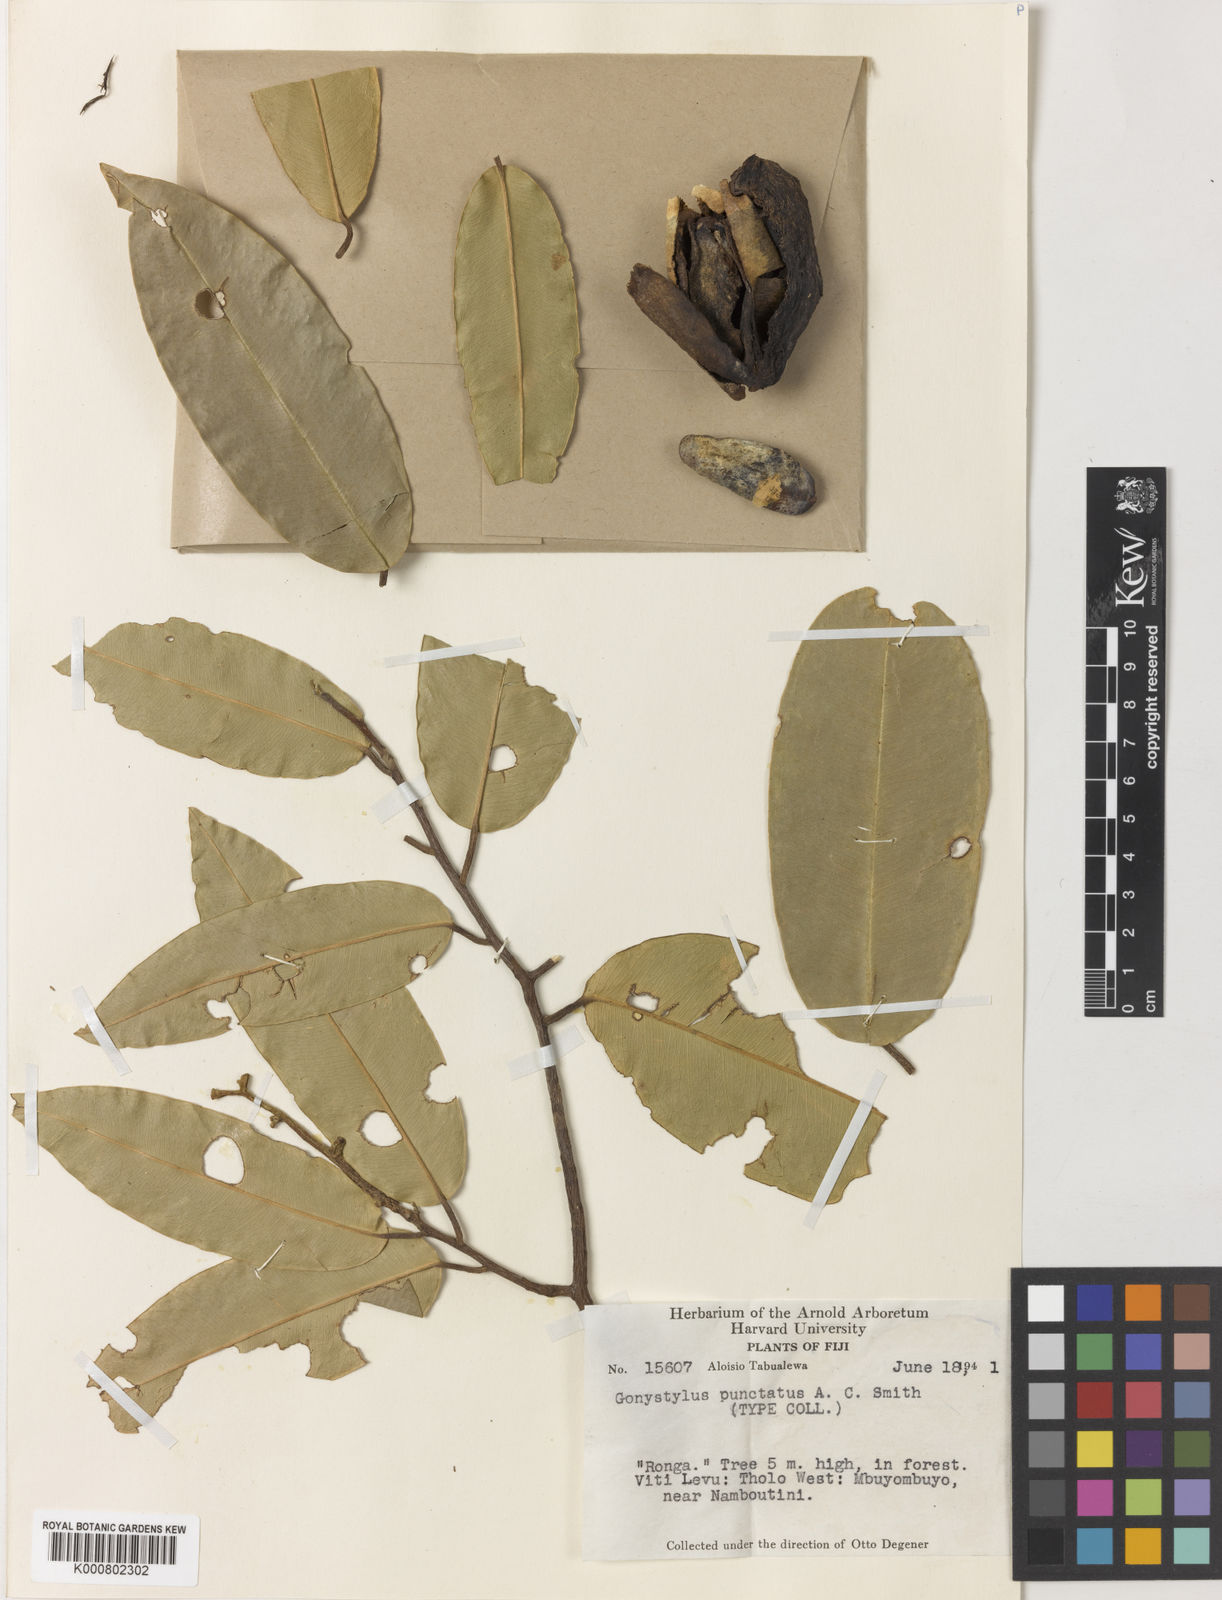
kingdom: Plantae
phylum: Tracheophyta
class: Magnoliopsida
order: Malvales
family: Thymelaeaceae
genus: Gonystylus
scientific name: Gonystylus punctatus
